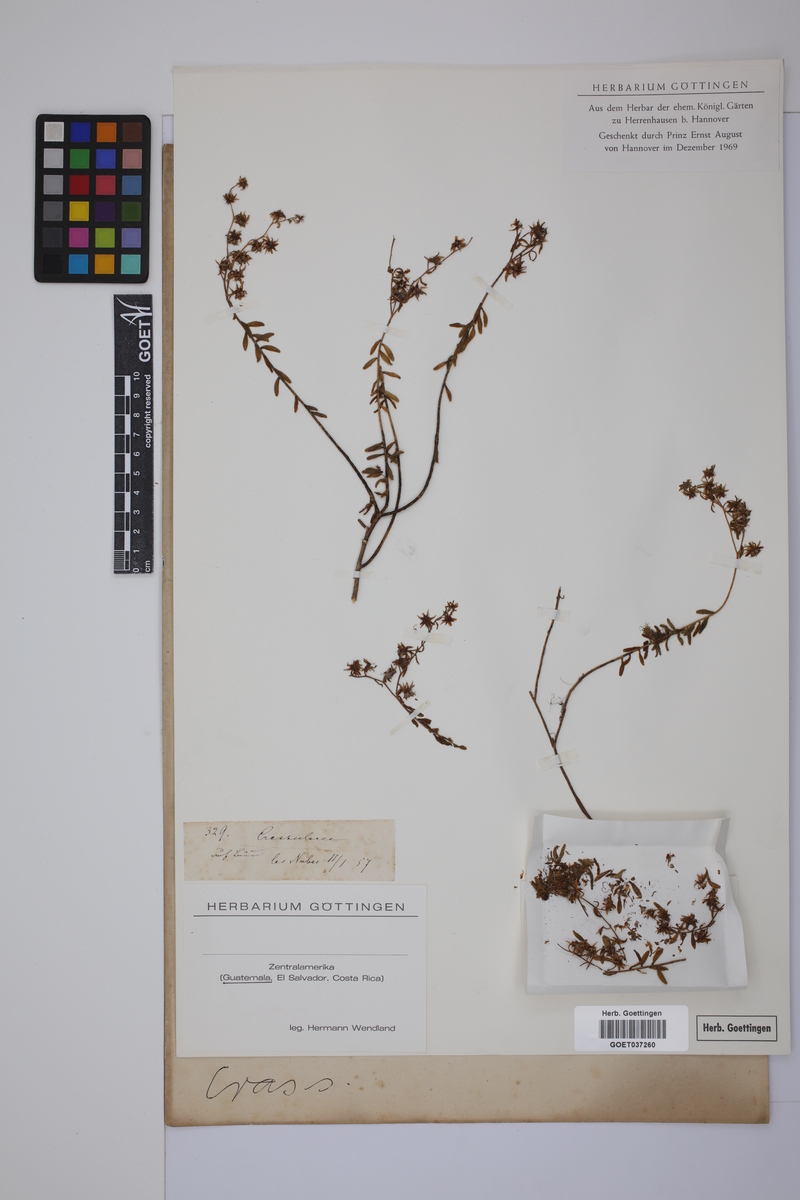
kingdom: Plantae
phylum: Tracheophyta
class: Magnoliopsida
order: Saxifragales
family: Crassulaceae
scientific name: Crassulaceae
